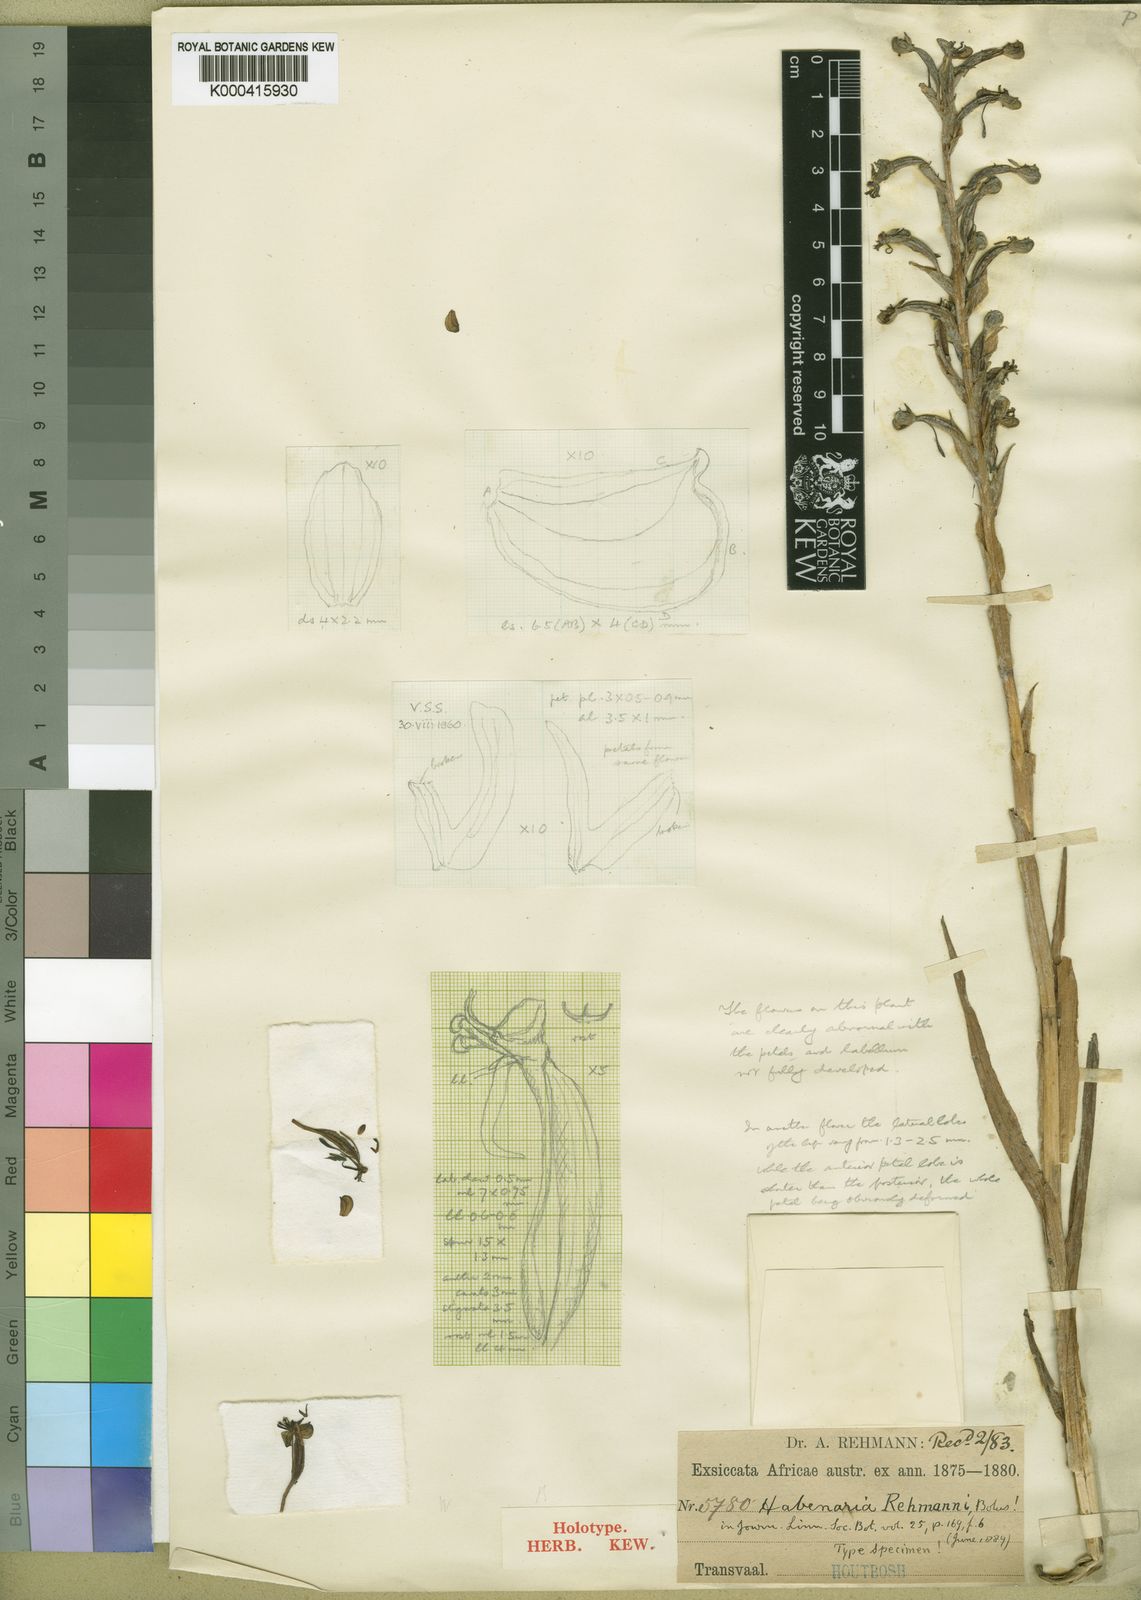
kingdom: Plantae
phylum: Tracheophyta
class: Liliopsida
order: Asparagales
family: Orchidaceae
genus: Habenaria
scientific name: Habenaria humilior
